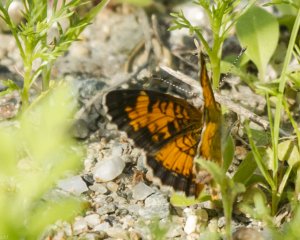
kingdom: Animalia
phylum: Arthropoda
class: Insecta
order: Lepidoptera
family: Nymphalidae
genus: Phyciodes
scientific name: Phyciodes tharos
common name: Northern Crescent
